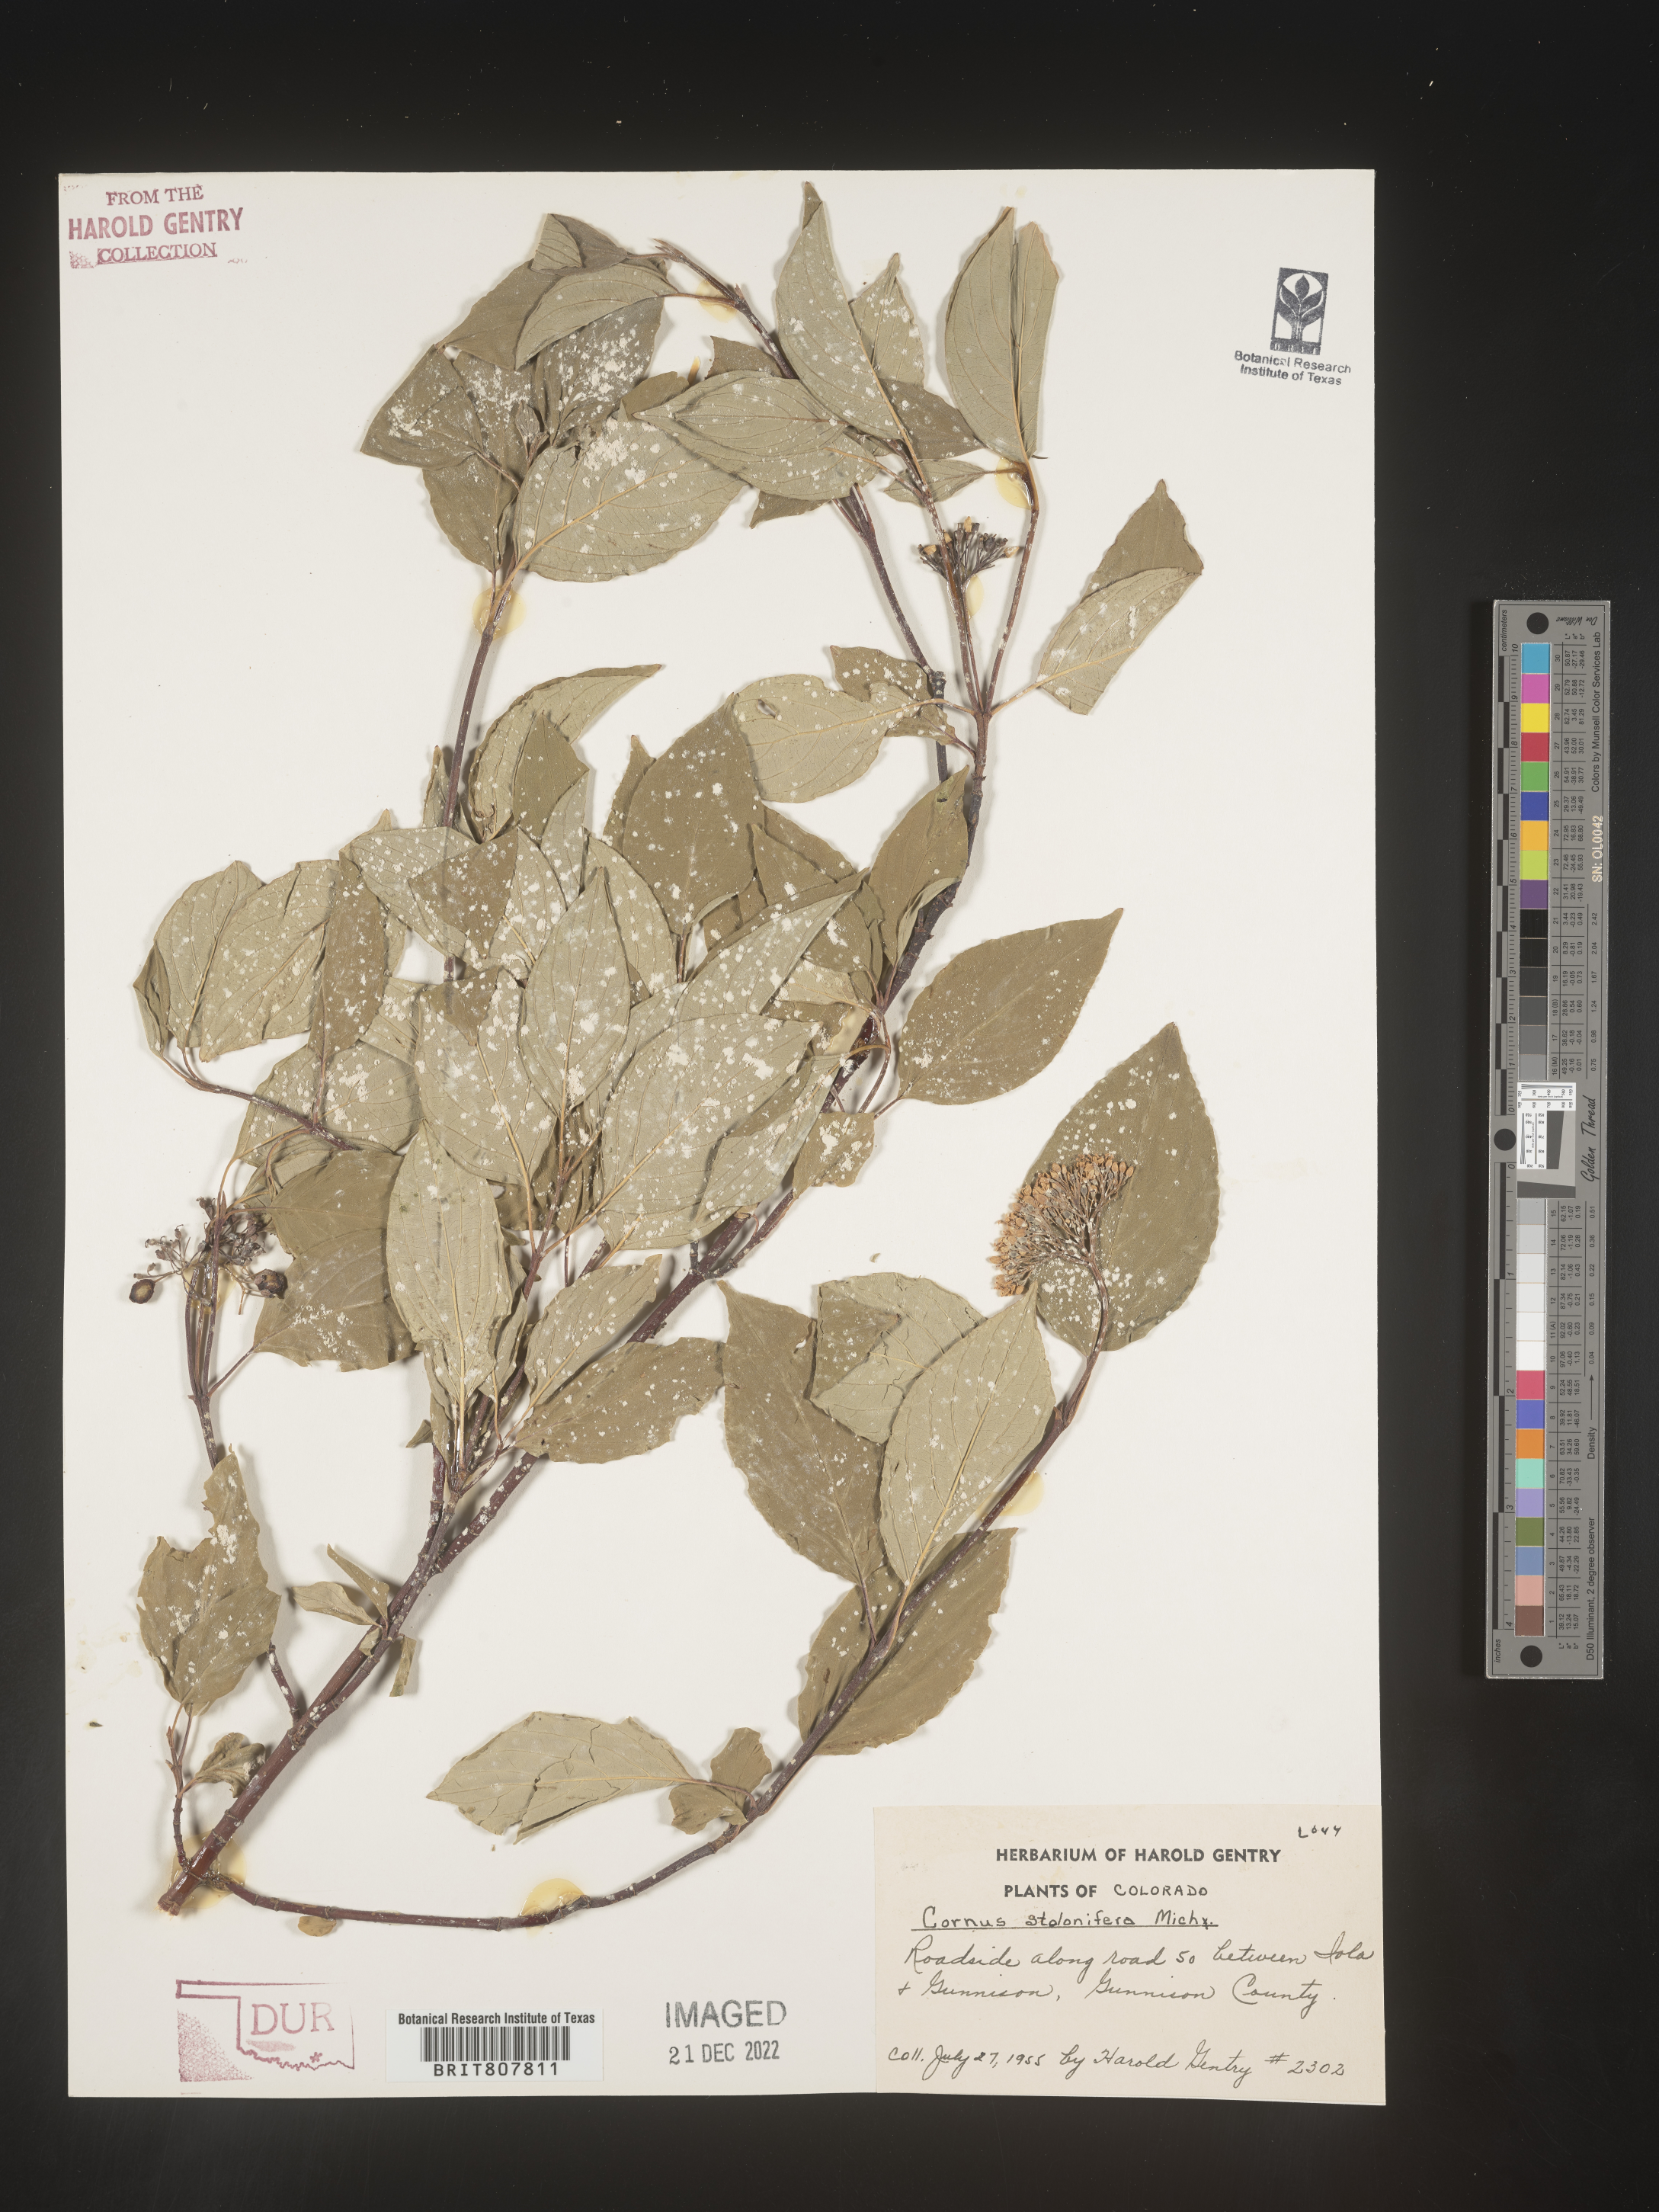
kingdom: Plantae
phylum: Tracheophyta
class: Magnoliopsida
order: Cornales
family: Cornaceae
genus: Cornus
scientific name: Cornus sericea
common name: Red-osier dogwood
